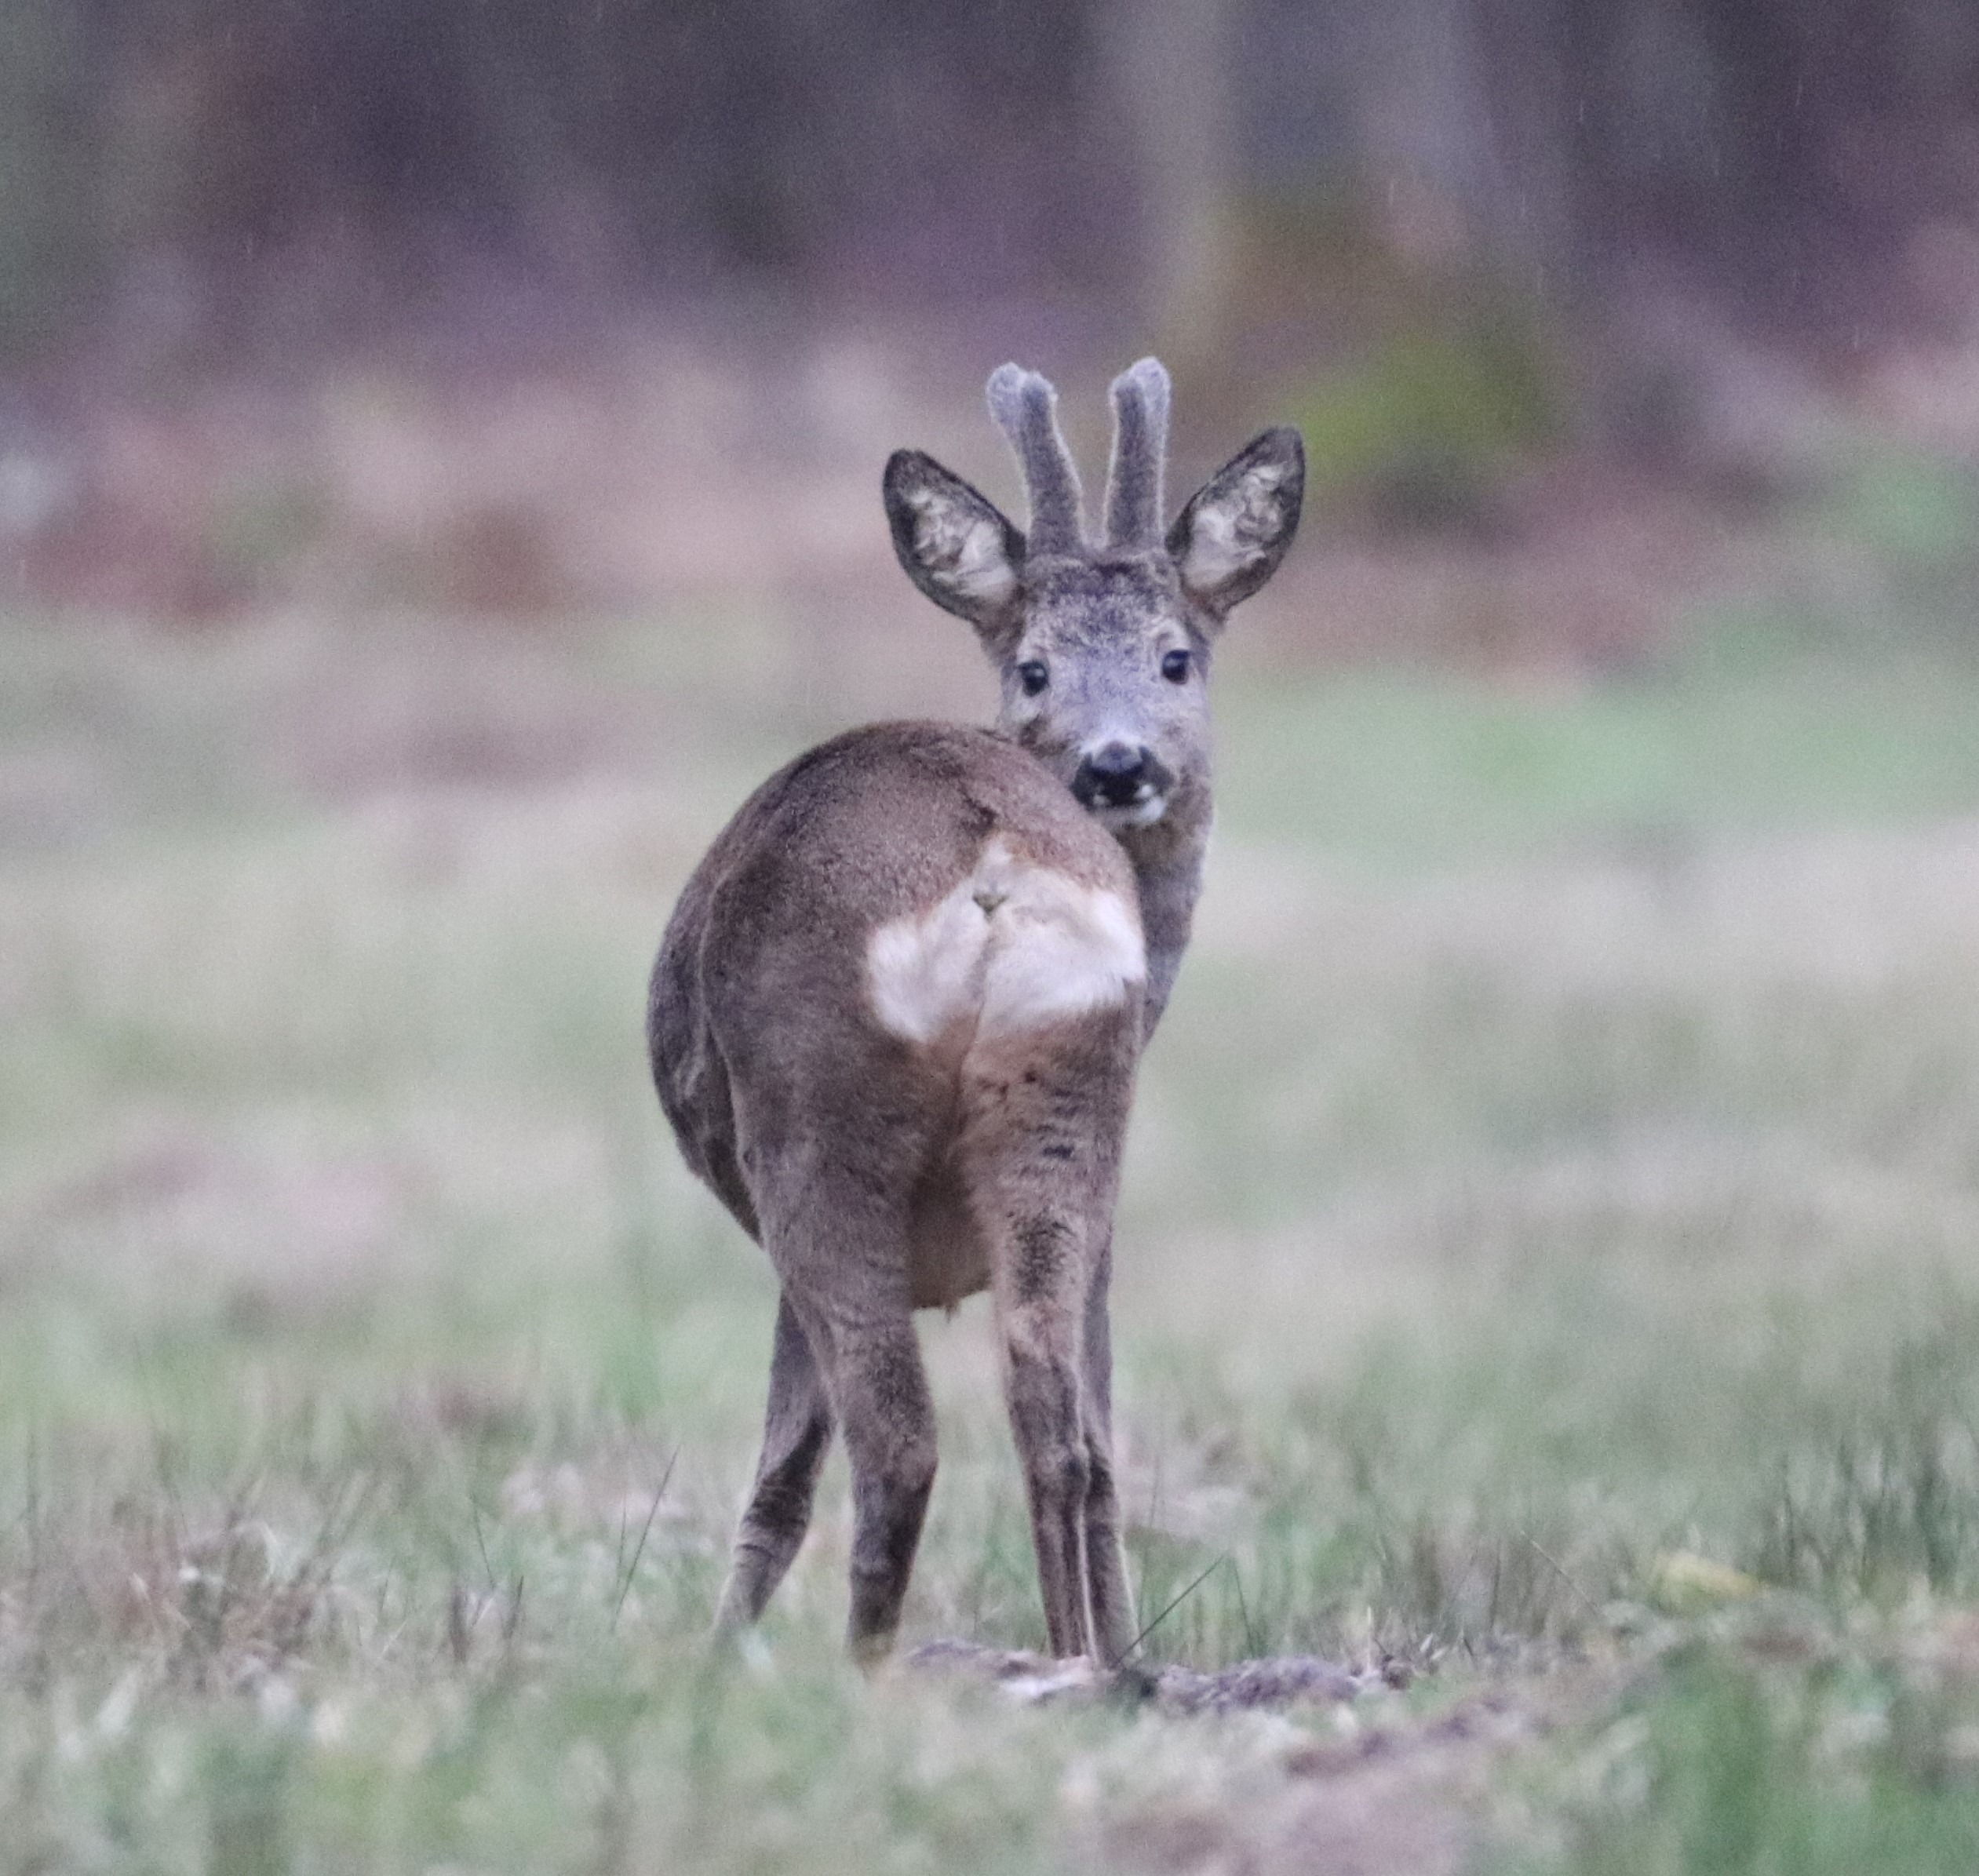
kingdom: Animalia
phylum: Chordata
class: Mammalia
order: Artiodactyla
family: Cervidae
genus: Capreolus
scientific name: Capreolus capreolus
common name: Rådyr
